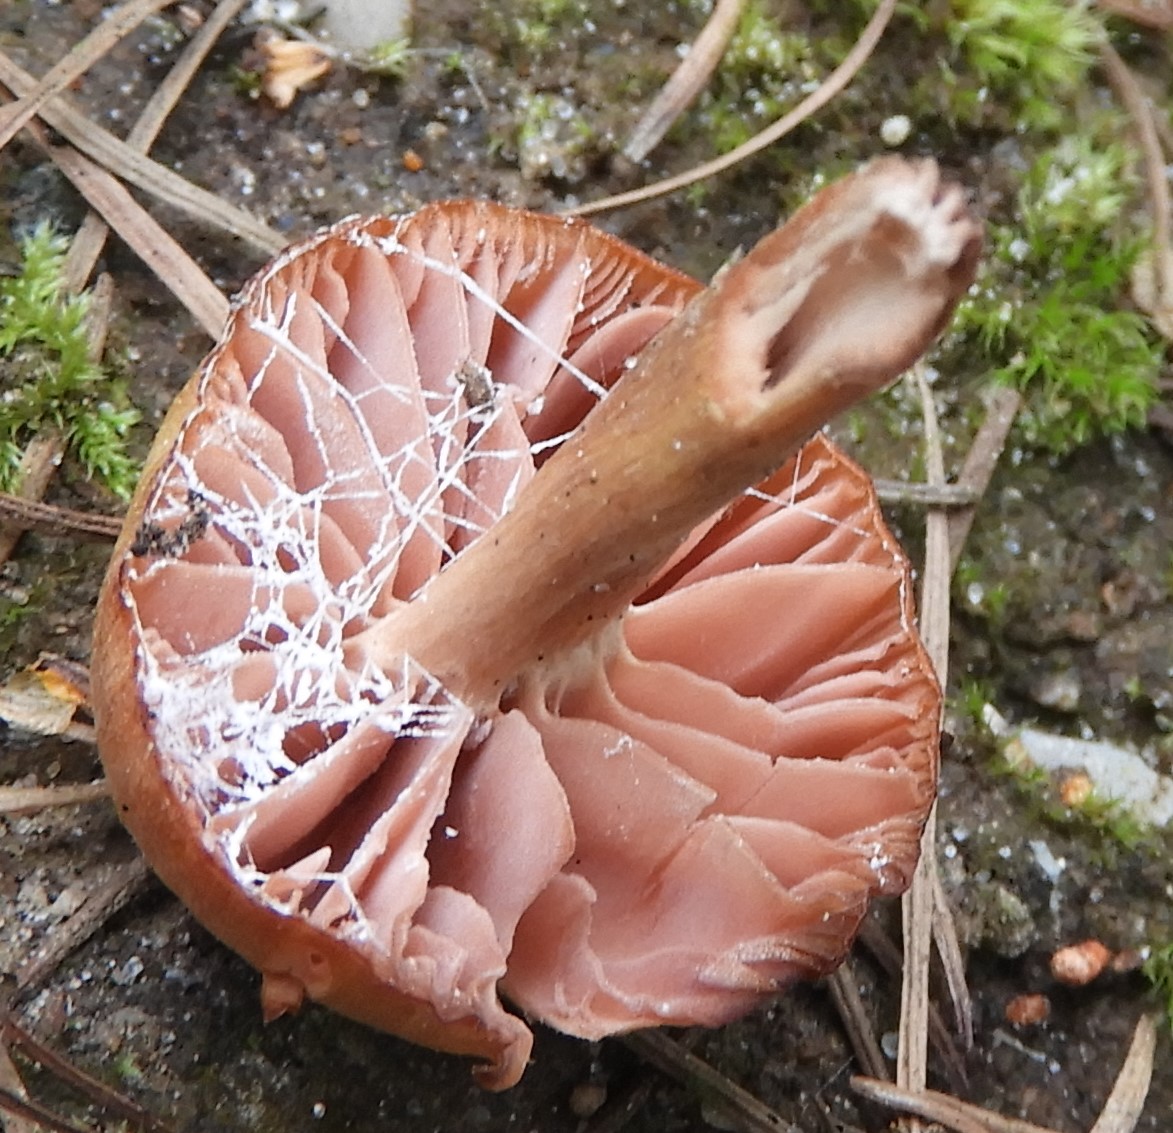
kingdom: Fungi
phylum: Basidiomycota
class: Agaricomycetes
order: Agaricales
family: Hydnangiaceae
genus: Laccaria
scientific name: Laccaria proxima
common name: stor ametysthat
